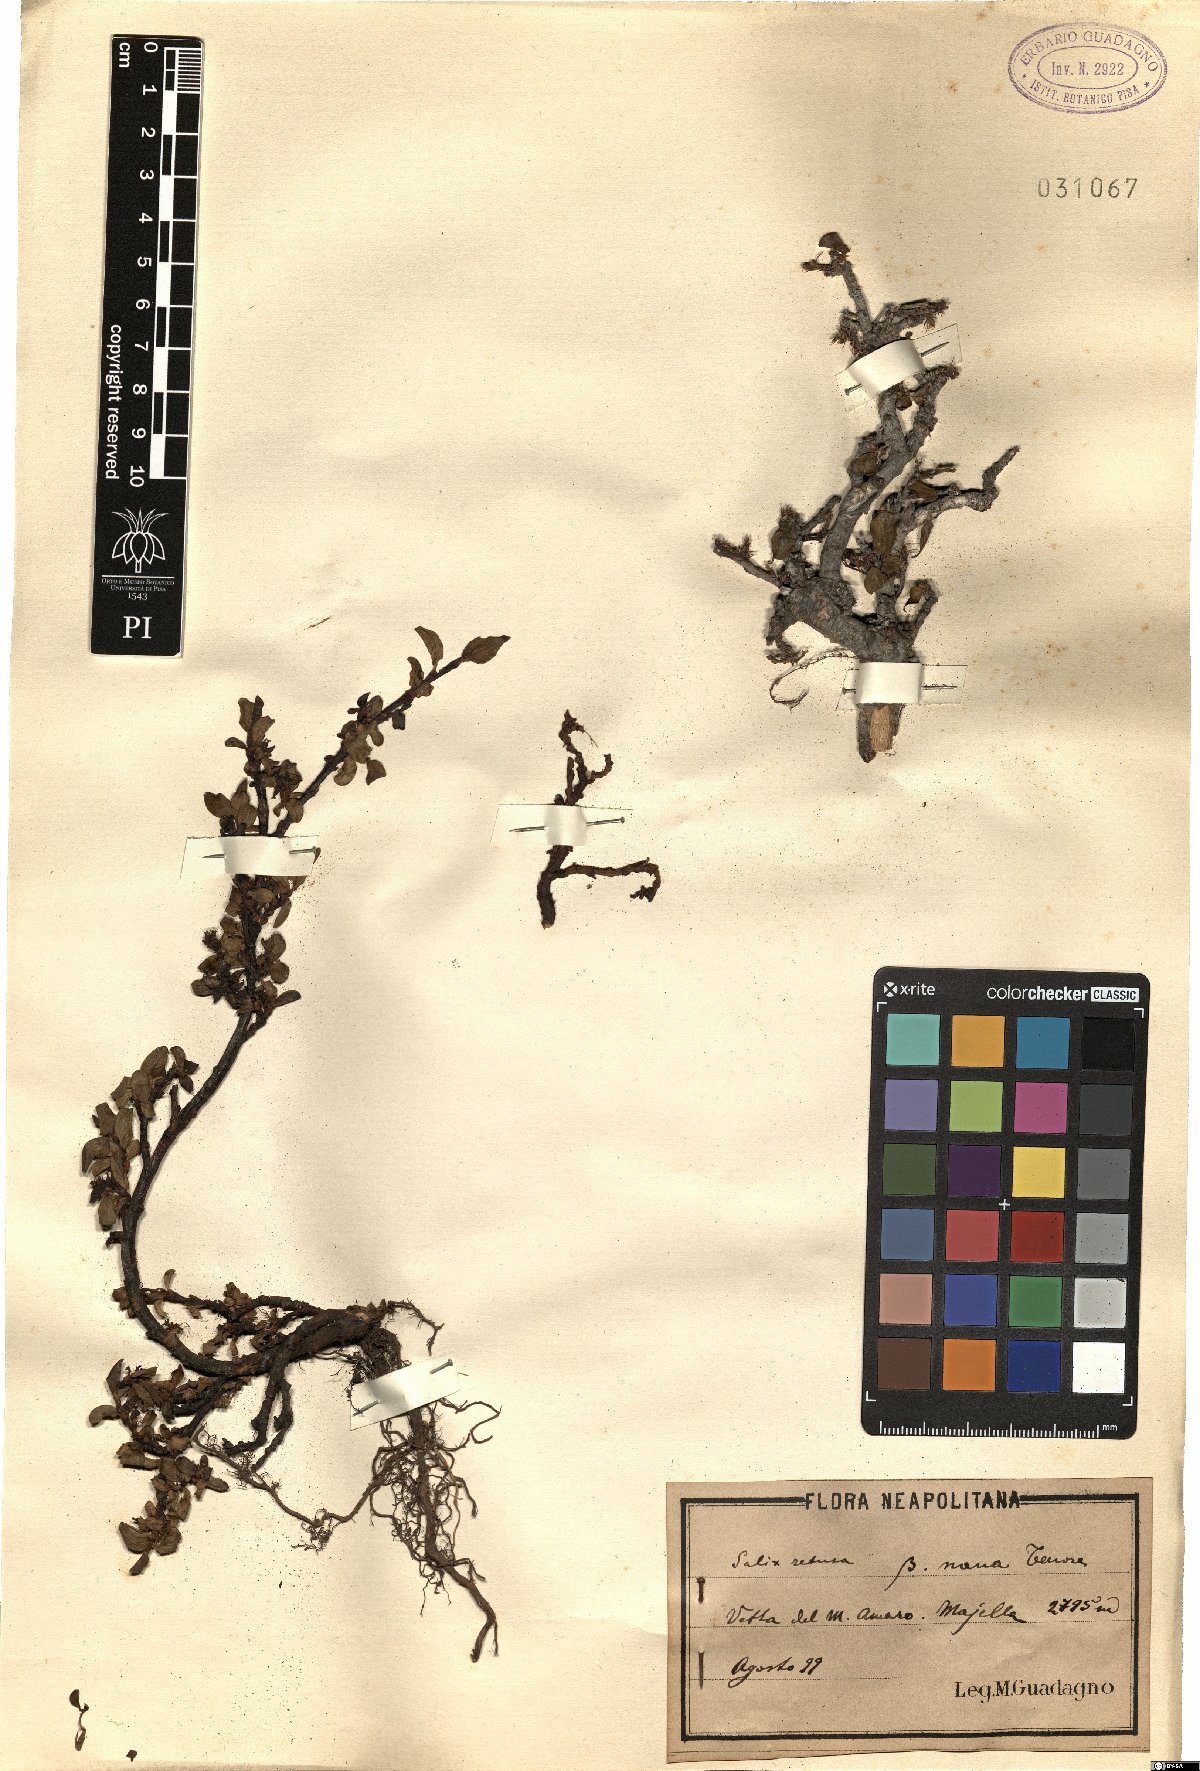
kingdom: Plantae
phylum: Tracheophyta
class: Magnoliopsida
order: Malpighiales
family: Salicaceae
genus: Salix
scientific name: Salix retusa
